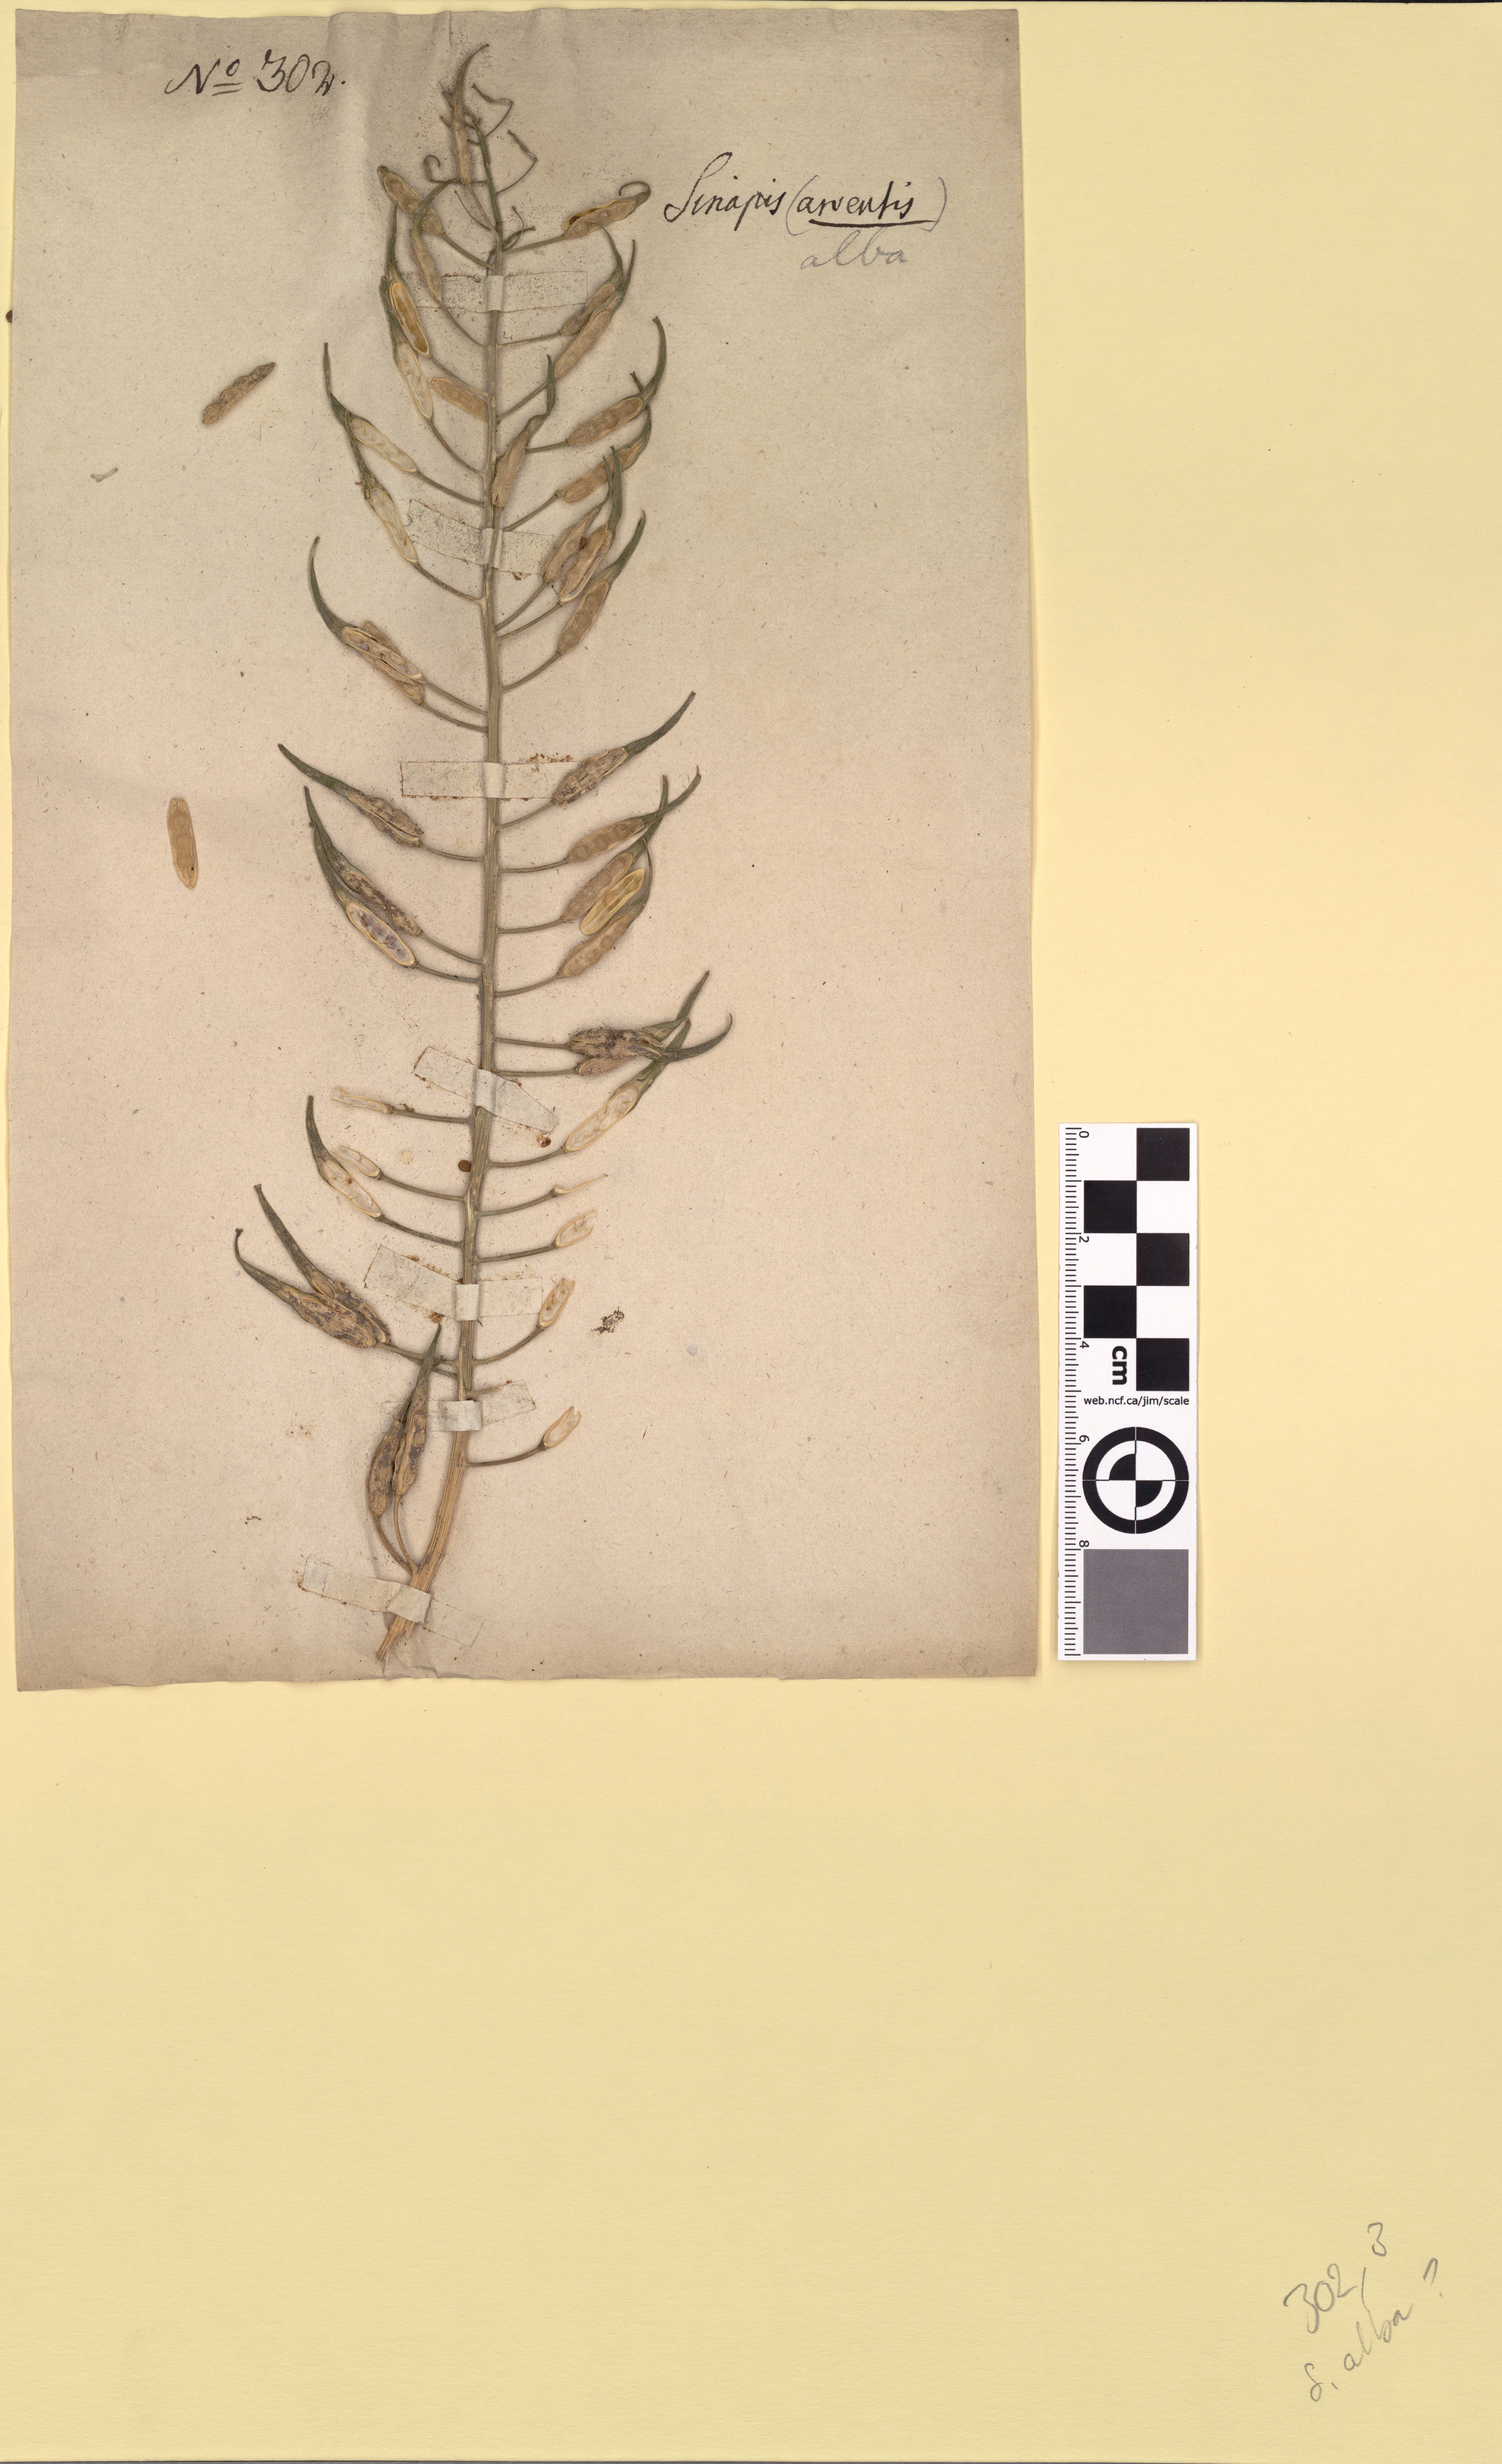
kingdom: Plantae
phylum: Tracheophyta
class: Magnoliopsida
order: Brassicales
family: Brassicaceae
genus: Sinapis
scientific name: Sinapis alba
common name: White mustard
